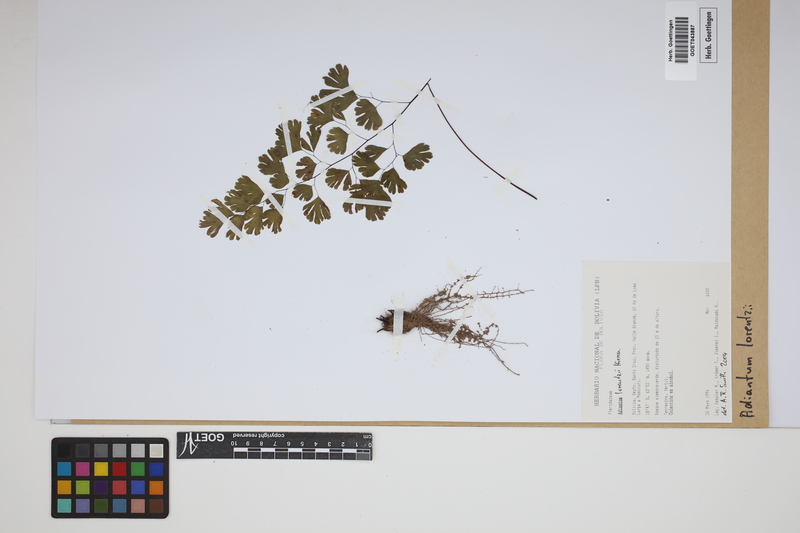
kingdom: Plantae
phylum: Tracheophyta
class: Polypodiopsida
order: Polypodiales
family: Pteridaceae
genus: Adiantum
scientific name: Adiantum lorentzii
